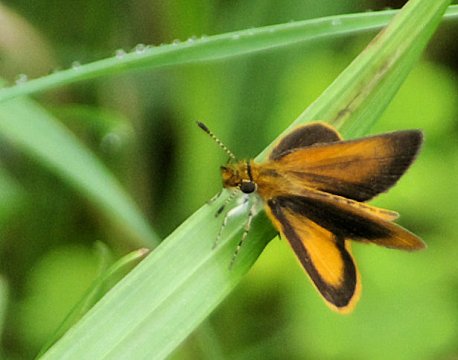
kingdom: Animalia
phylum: Arthropoda
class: Insecta
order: Lepidoptera
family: Hesperiidae
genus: Ancyloxypha
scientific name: Ancyloxypha numitor
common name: Least Skipper
